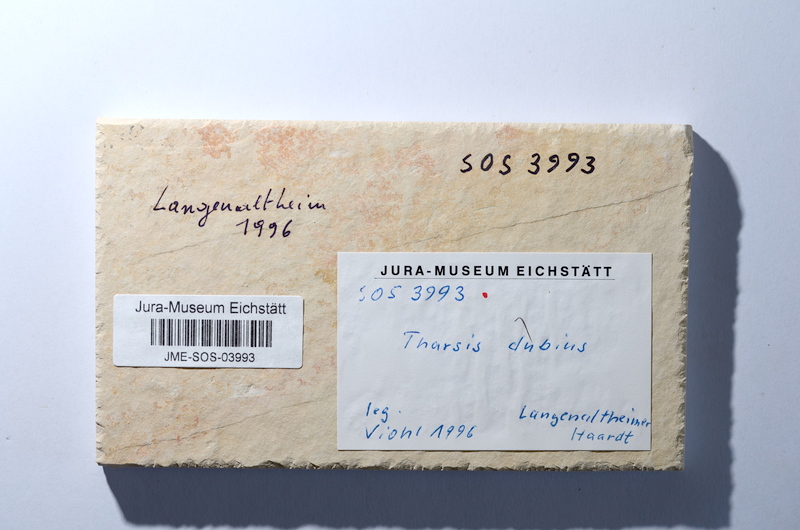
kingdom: Animalia
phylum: Chordata
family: Ascalaboidae
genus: Tharsis
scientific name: Tharsis dubius
